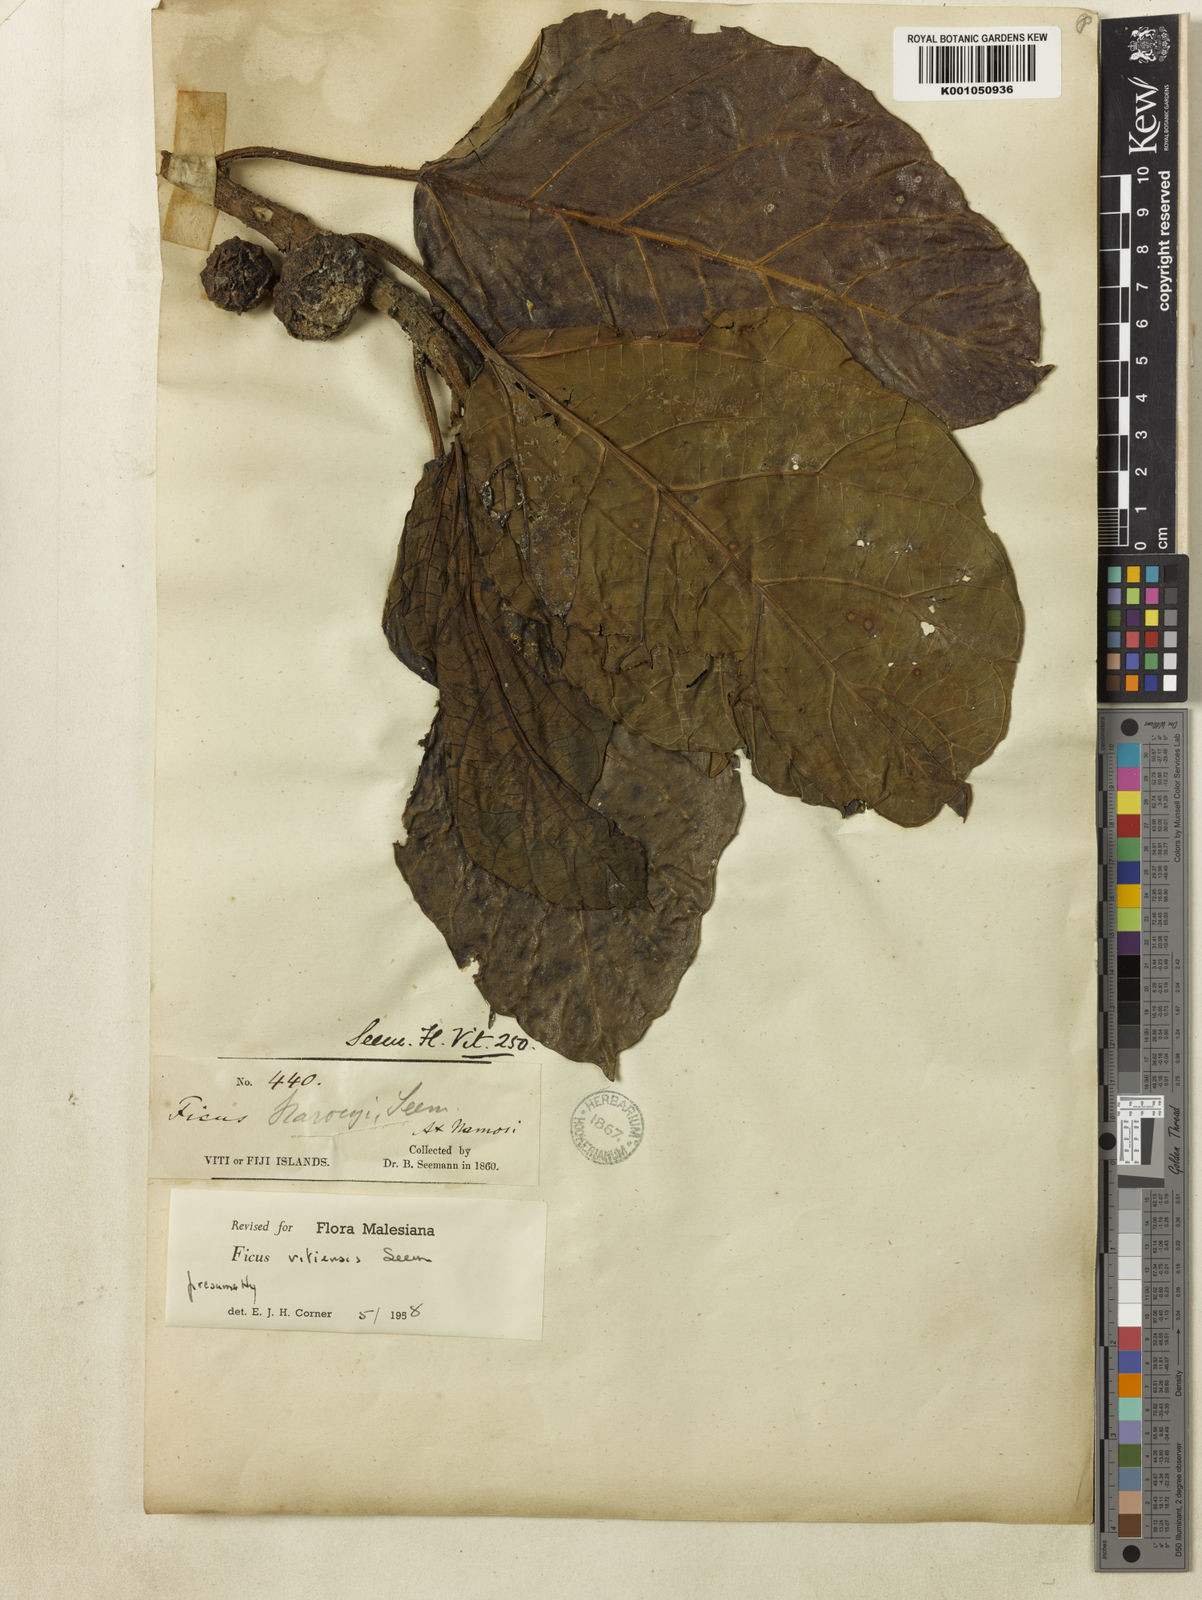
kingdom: Plantae
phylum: Tracheophyta
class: Magnoliopsida
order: Rosales
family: Moraceae
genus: Ficus
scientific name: Ficus vitiensis
